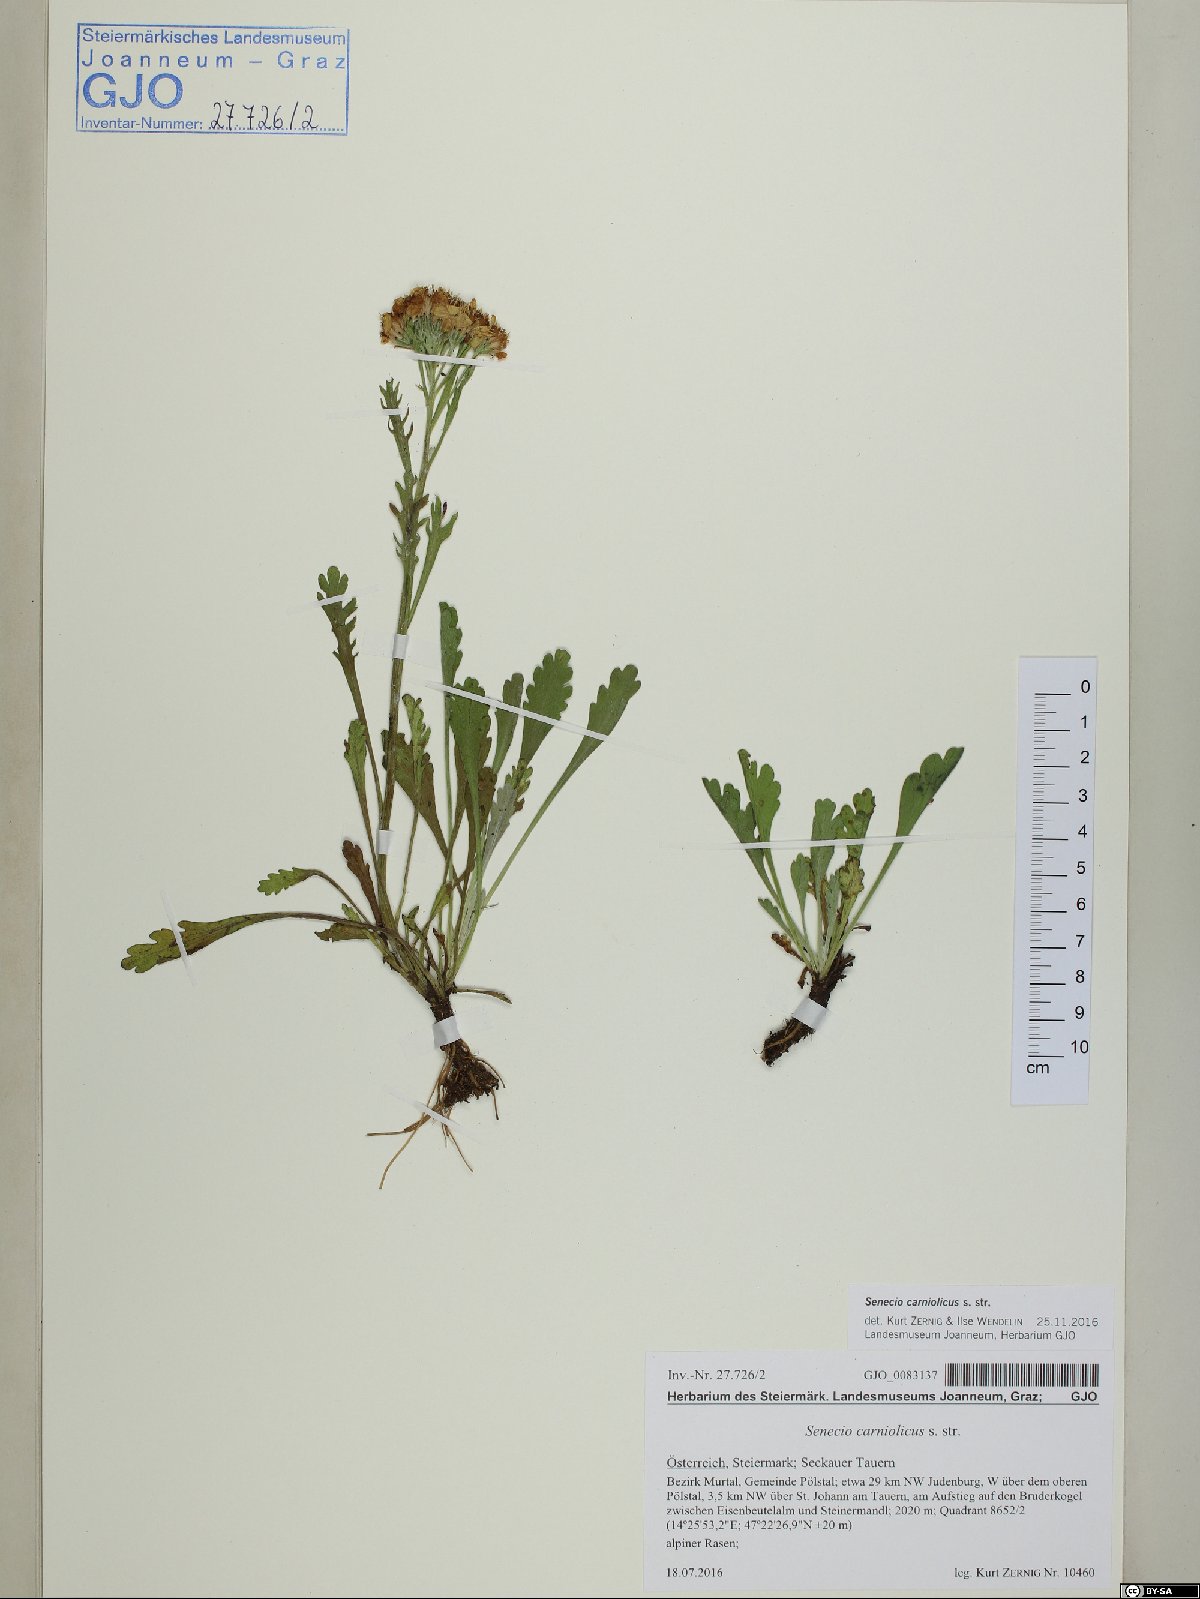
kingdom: Plantae
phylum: Tracheophyta
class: Magnoliopsida
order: Asterales
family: Asteraceae
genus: Jacobaea
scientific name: Jacobaea carniolica
